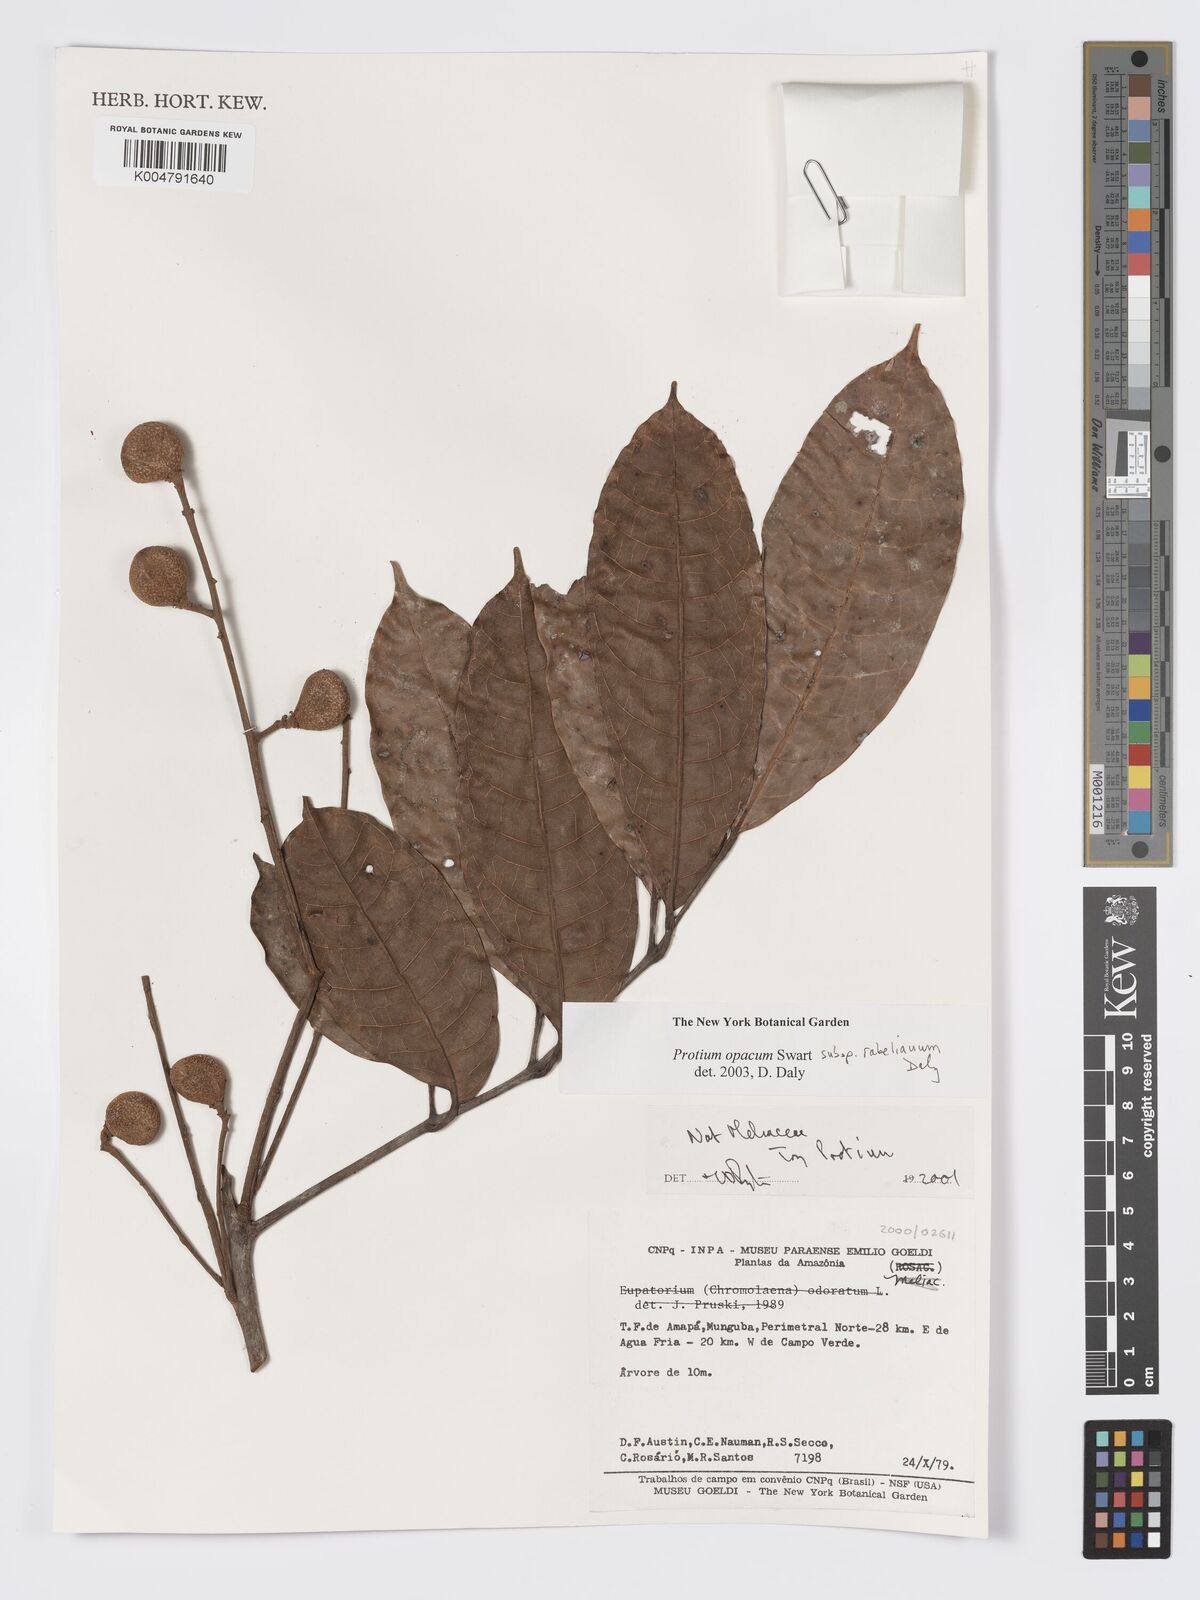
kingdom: Plantae
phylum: Tracheophyta
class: Magnoliopsida
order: Sapindales
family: Burseraceae
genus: Protium
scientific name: Protium opacum
